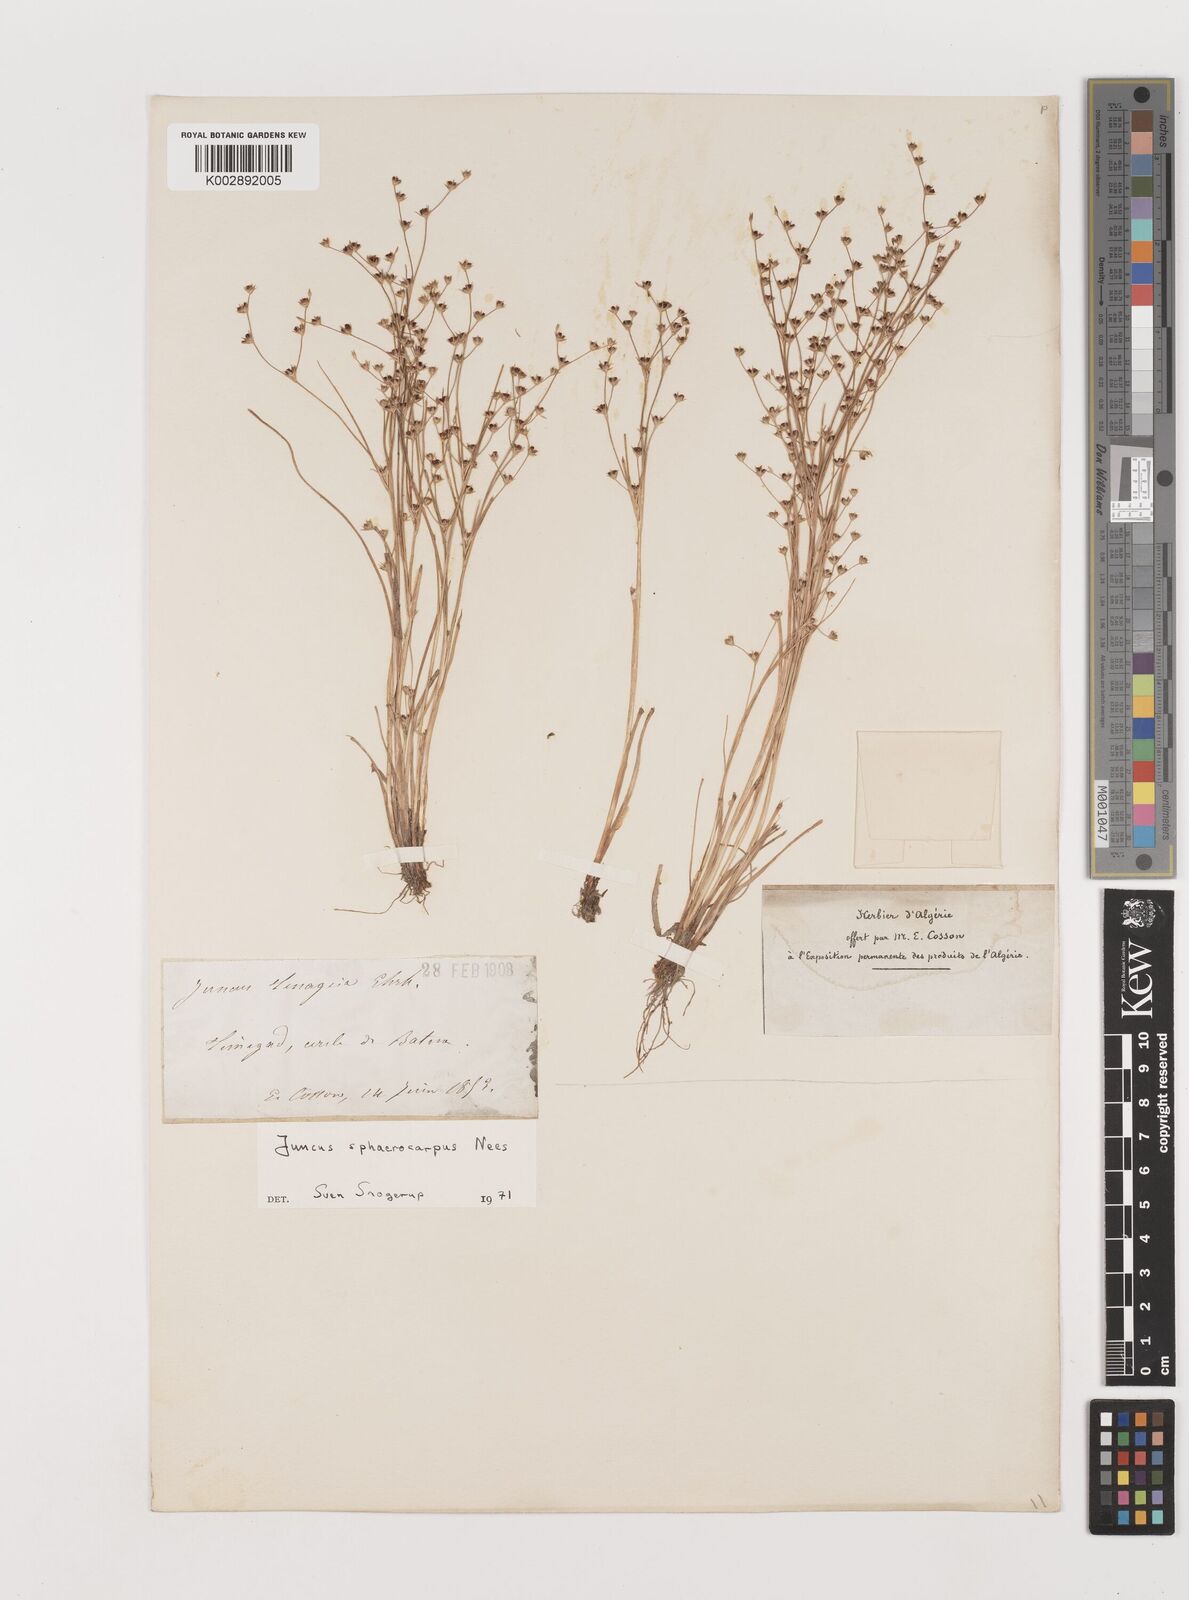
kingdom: Plantae
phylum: Tracheophyta
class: Liliopsida
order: Poales
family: Juncaceae
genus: Juncus
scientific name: Juncus sphaerocarpus
